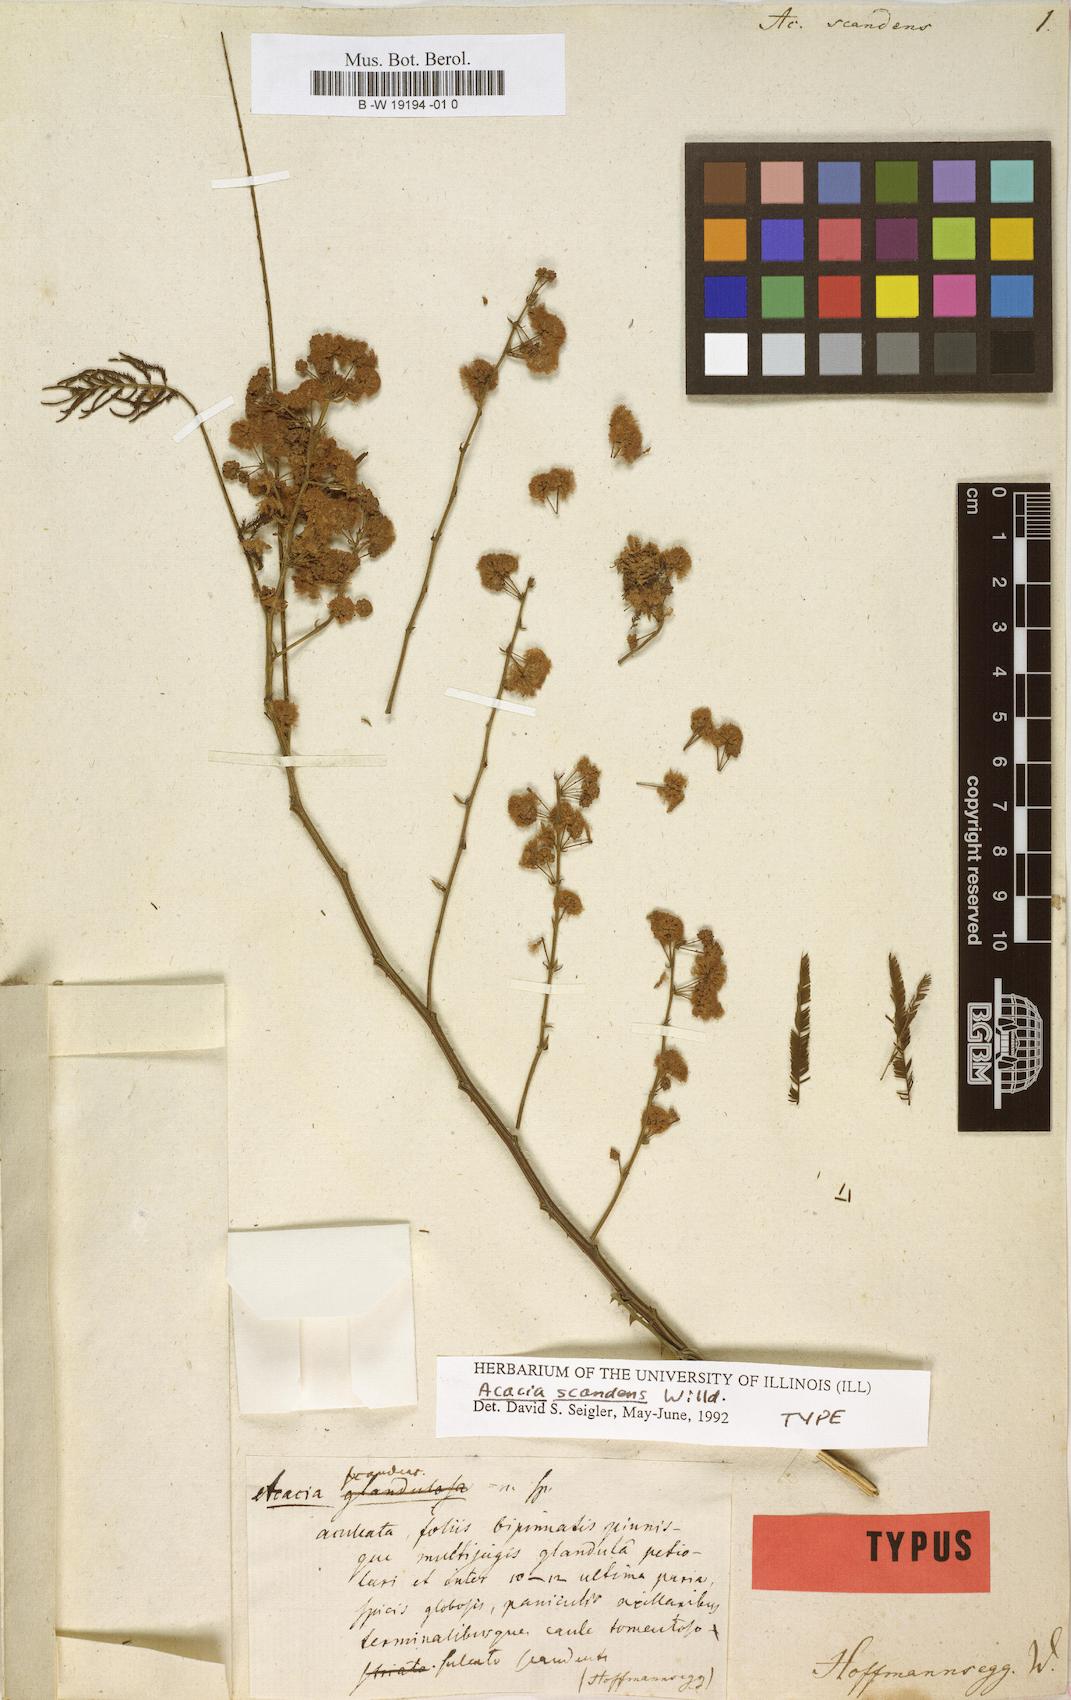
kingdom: Plantae
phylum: Tracheophyta
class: Magnoliopsida
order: Fabales
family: Fabaceae
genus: Entada
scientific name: Entada phaseoloides
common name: Matchbox-bean
